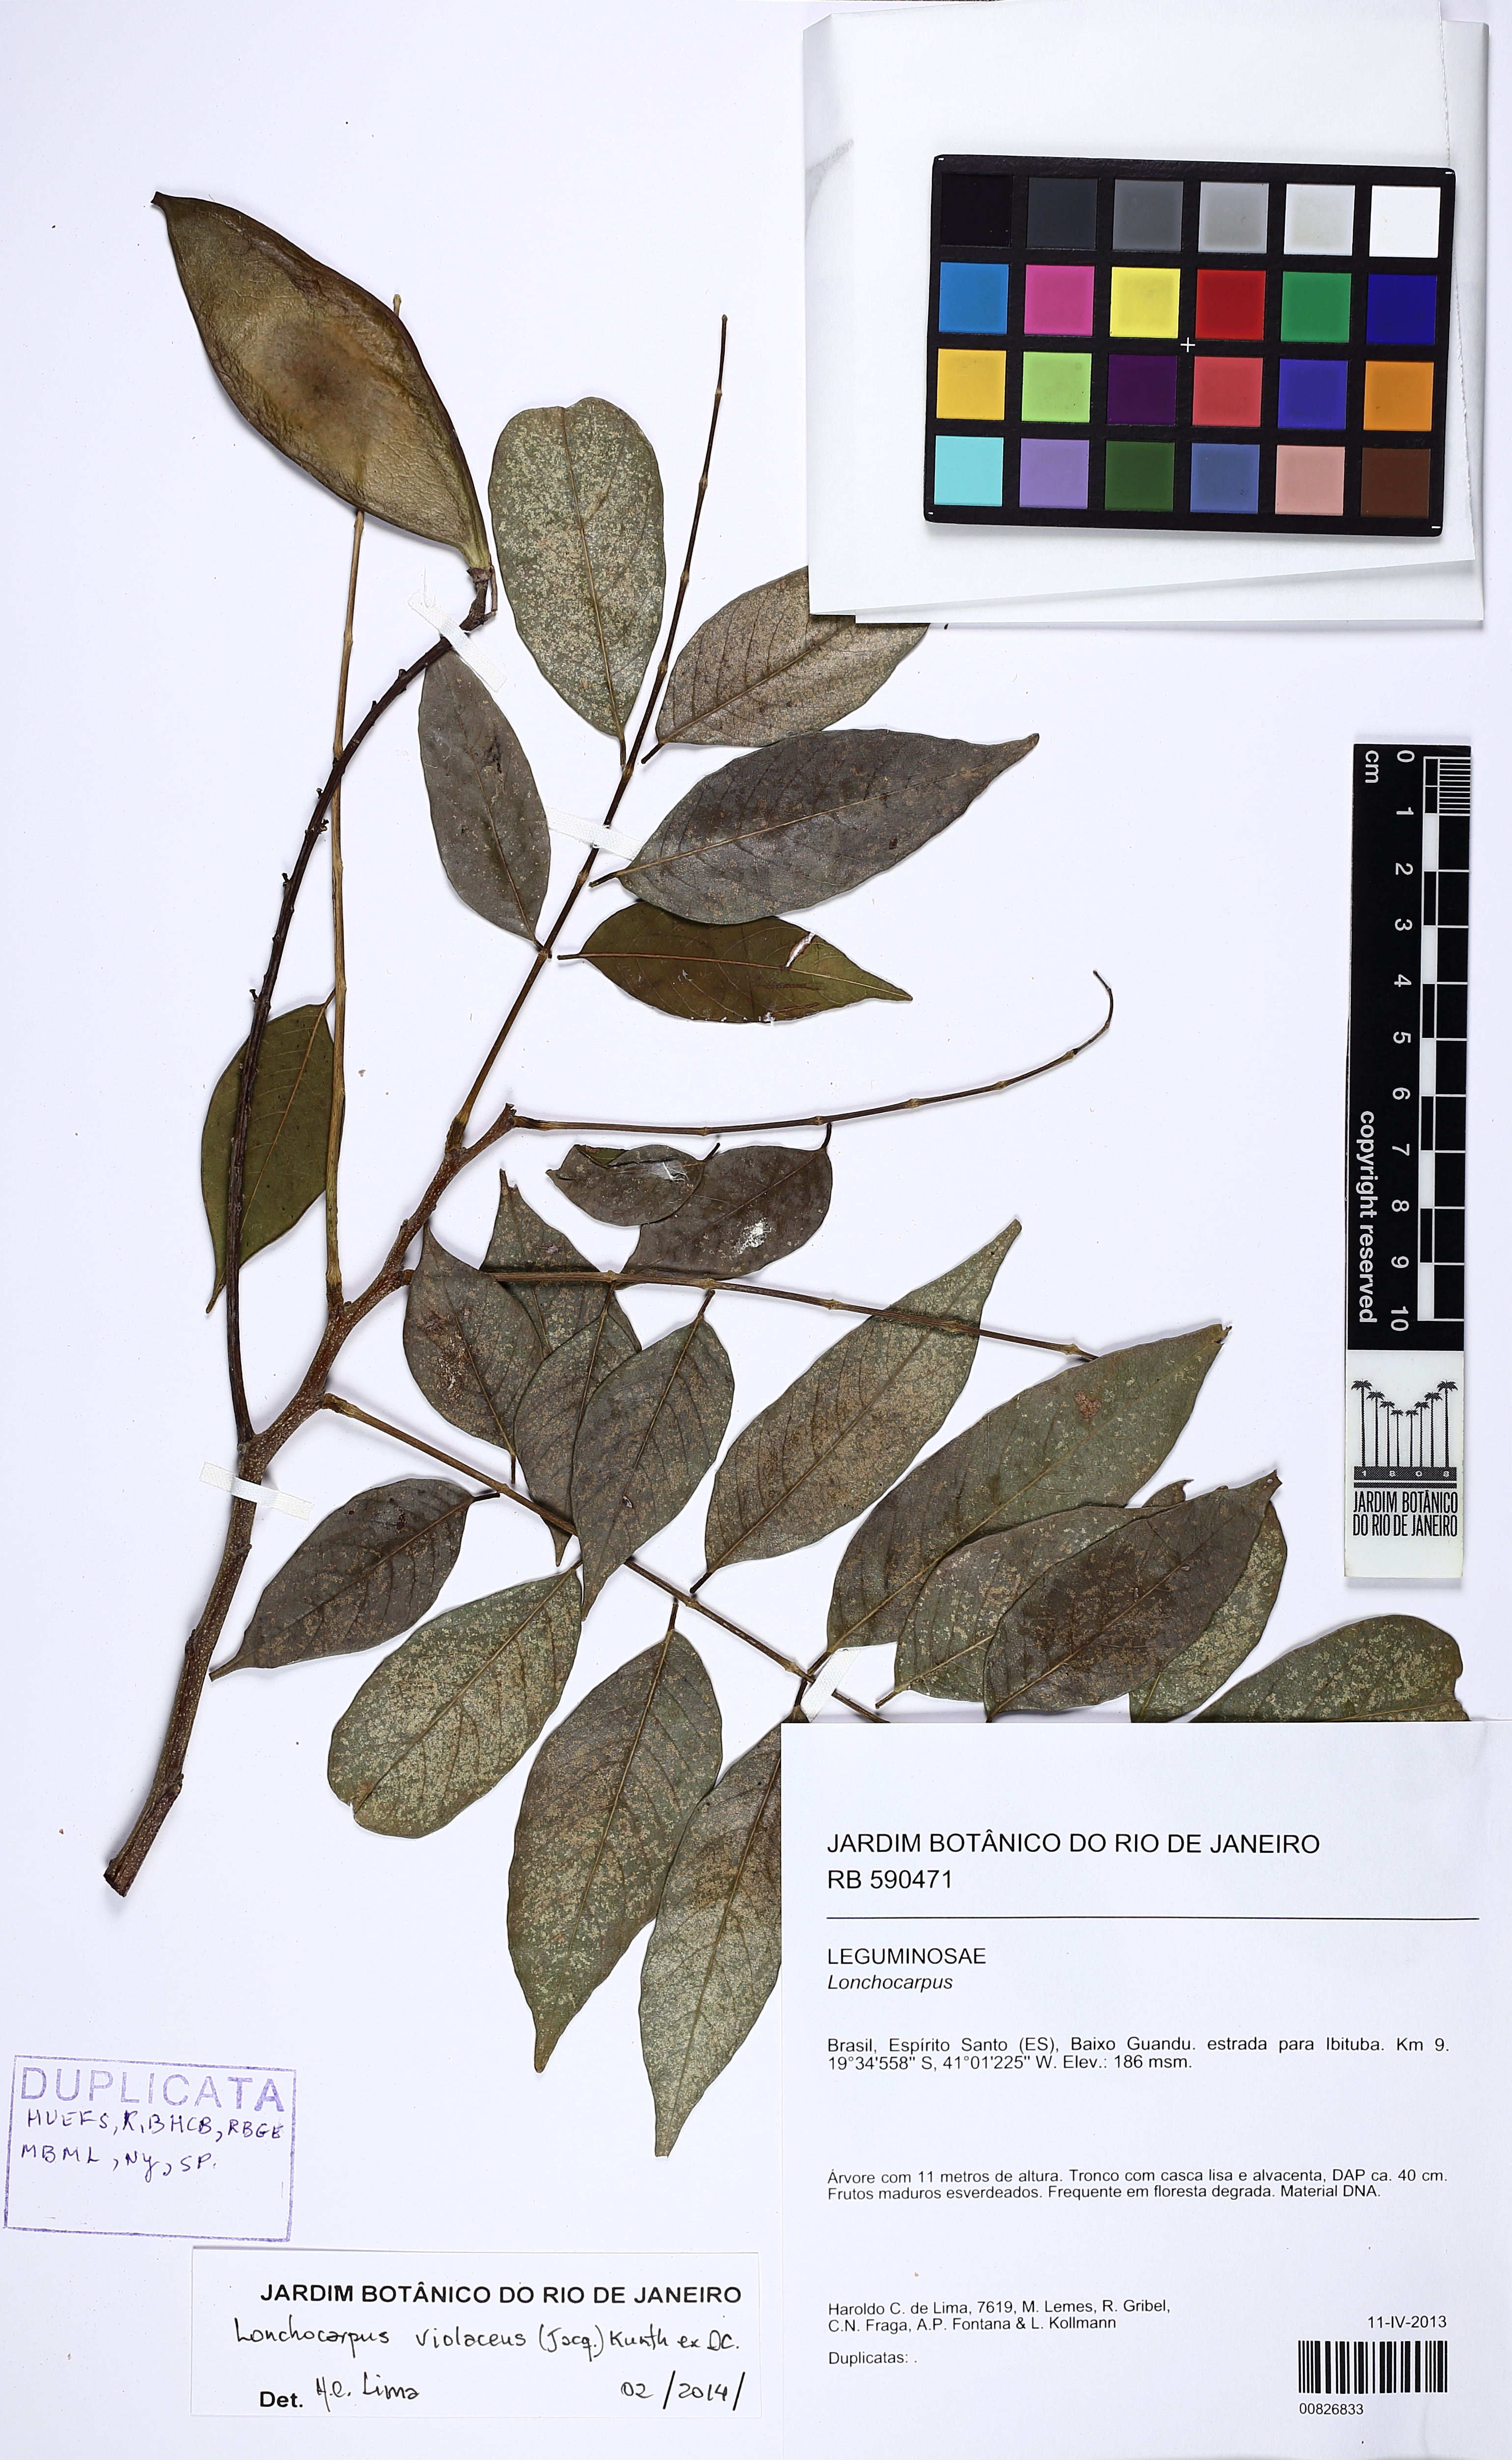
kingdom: Plantae
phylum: Tracheophyta
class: Magnoliopsida
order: Fabales
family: Fabaceae
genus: Lonchocarpus
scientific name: Lonchocarpus violaceus
